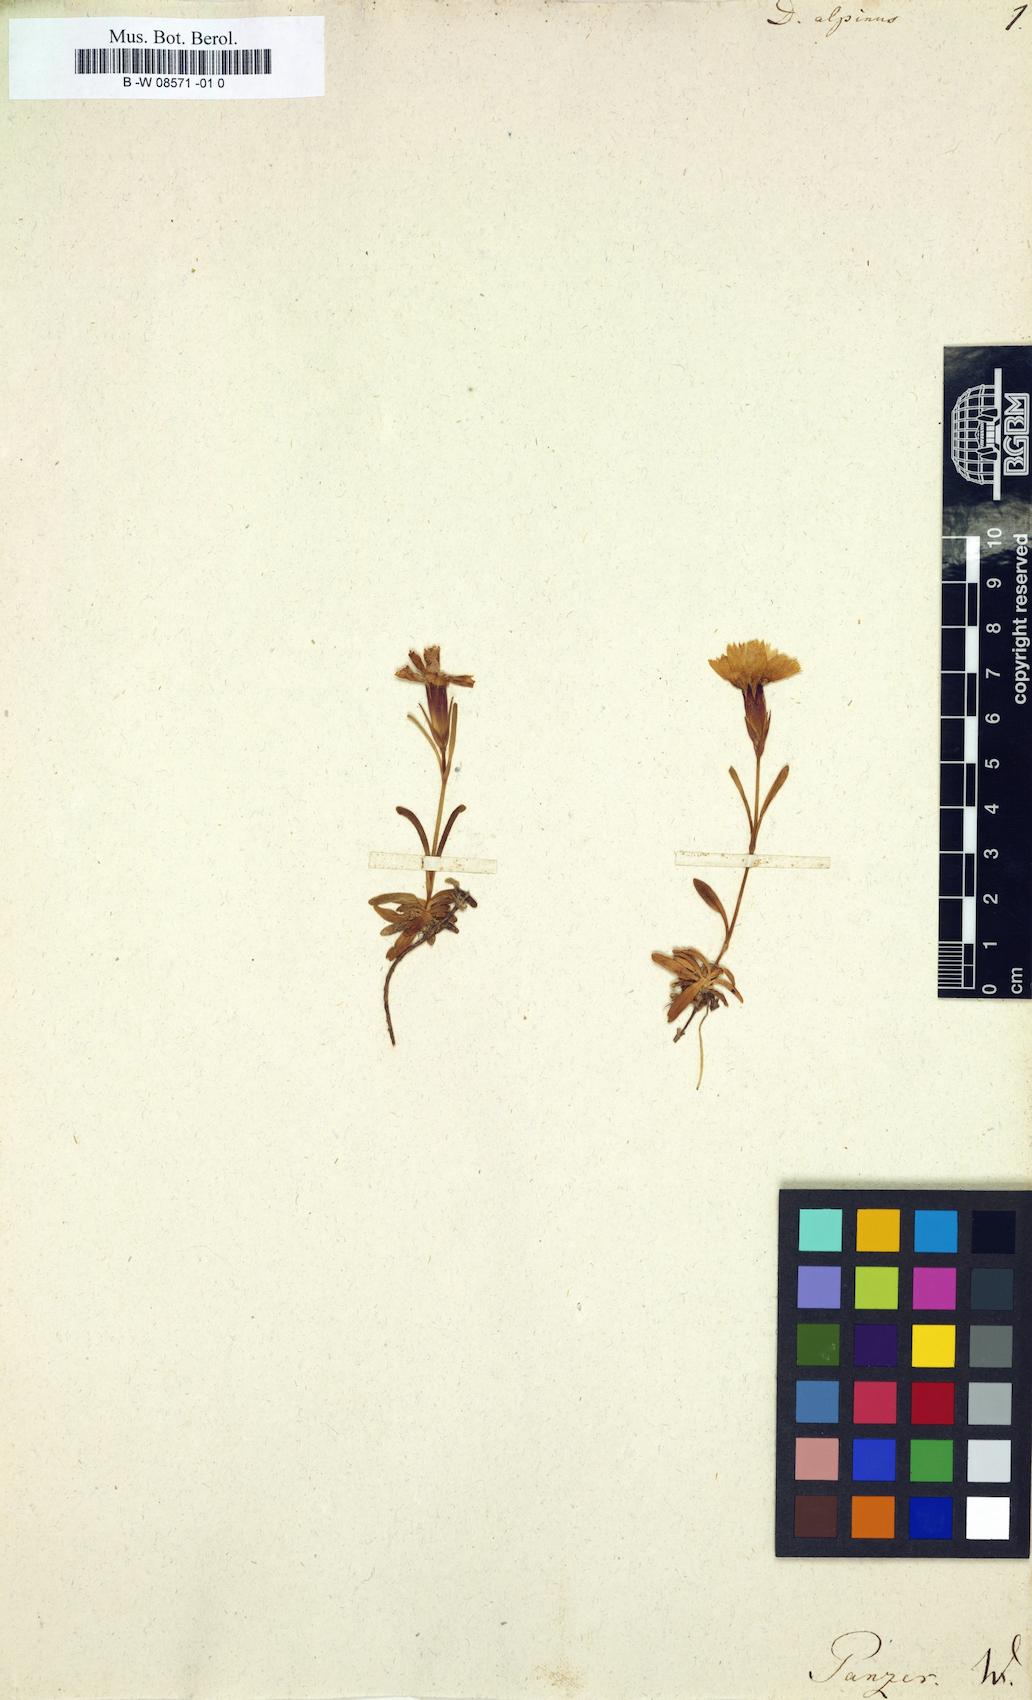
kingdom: Plantae
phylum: Tracheophyta
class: Magnoliopsida
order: Caryophyllales
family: Caryophyllaceae
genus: Dianthus
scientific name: Dianthus alpinus
